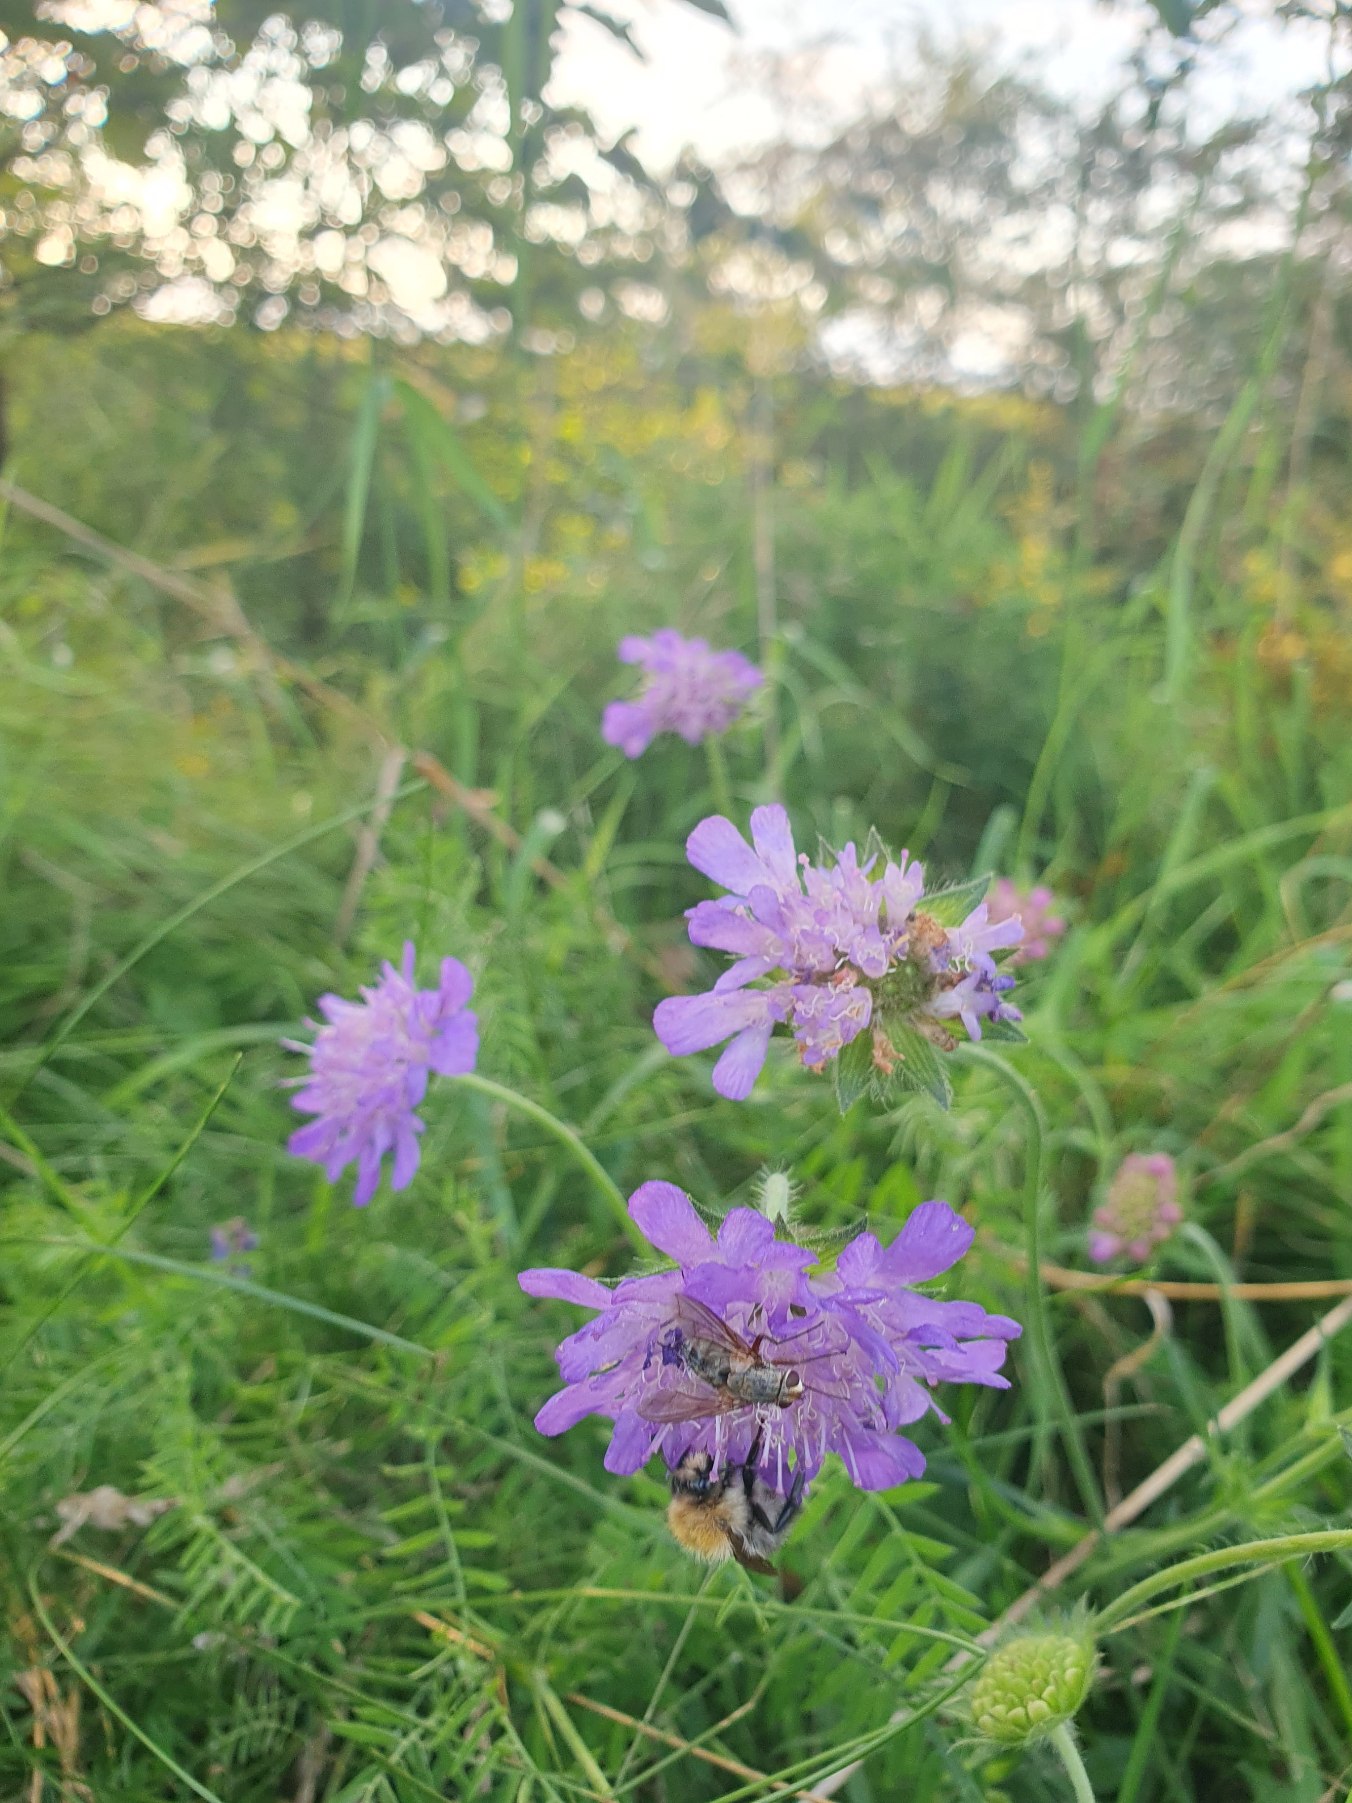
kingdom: Plantae
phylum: Tracheophyta
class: Magnoliopsida
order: Dipsacales
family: Caprifoliaceae
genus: Knautia
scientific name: Knautia arvensis
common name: Blåhat
